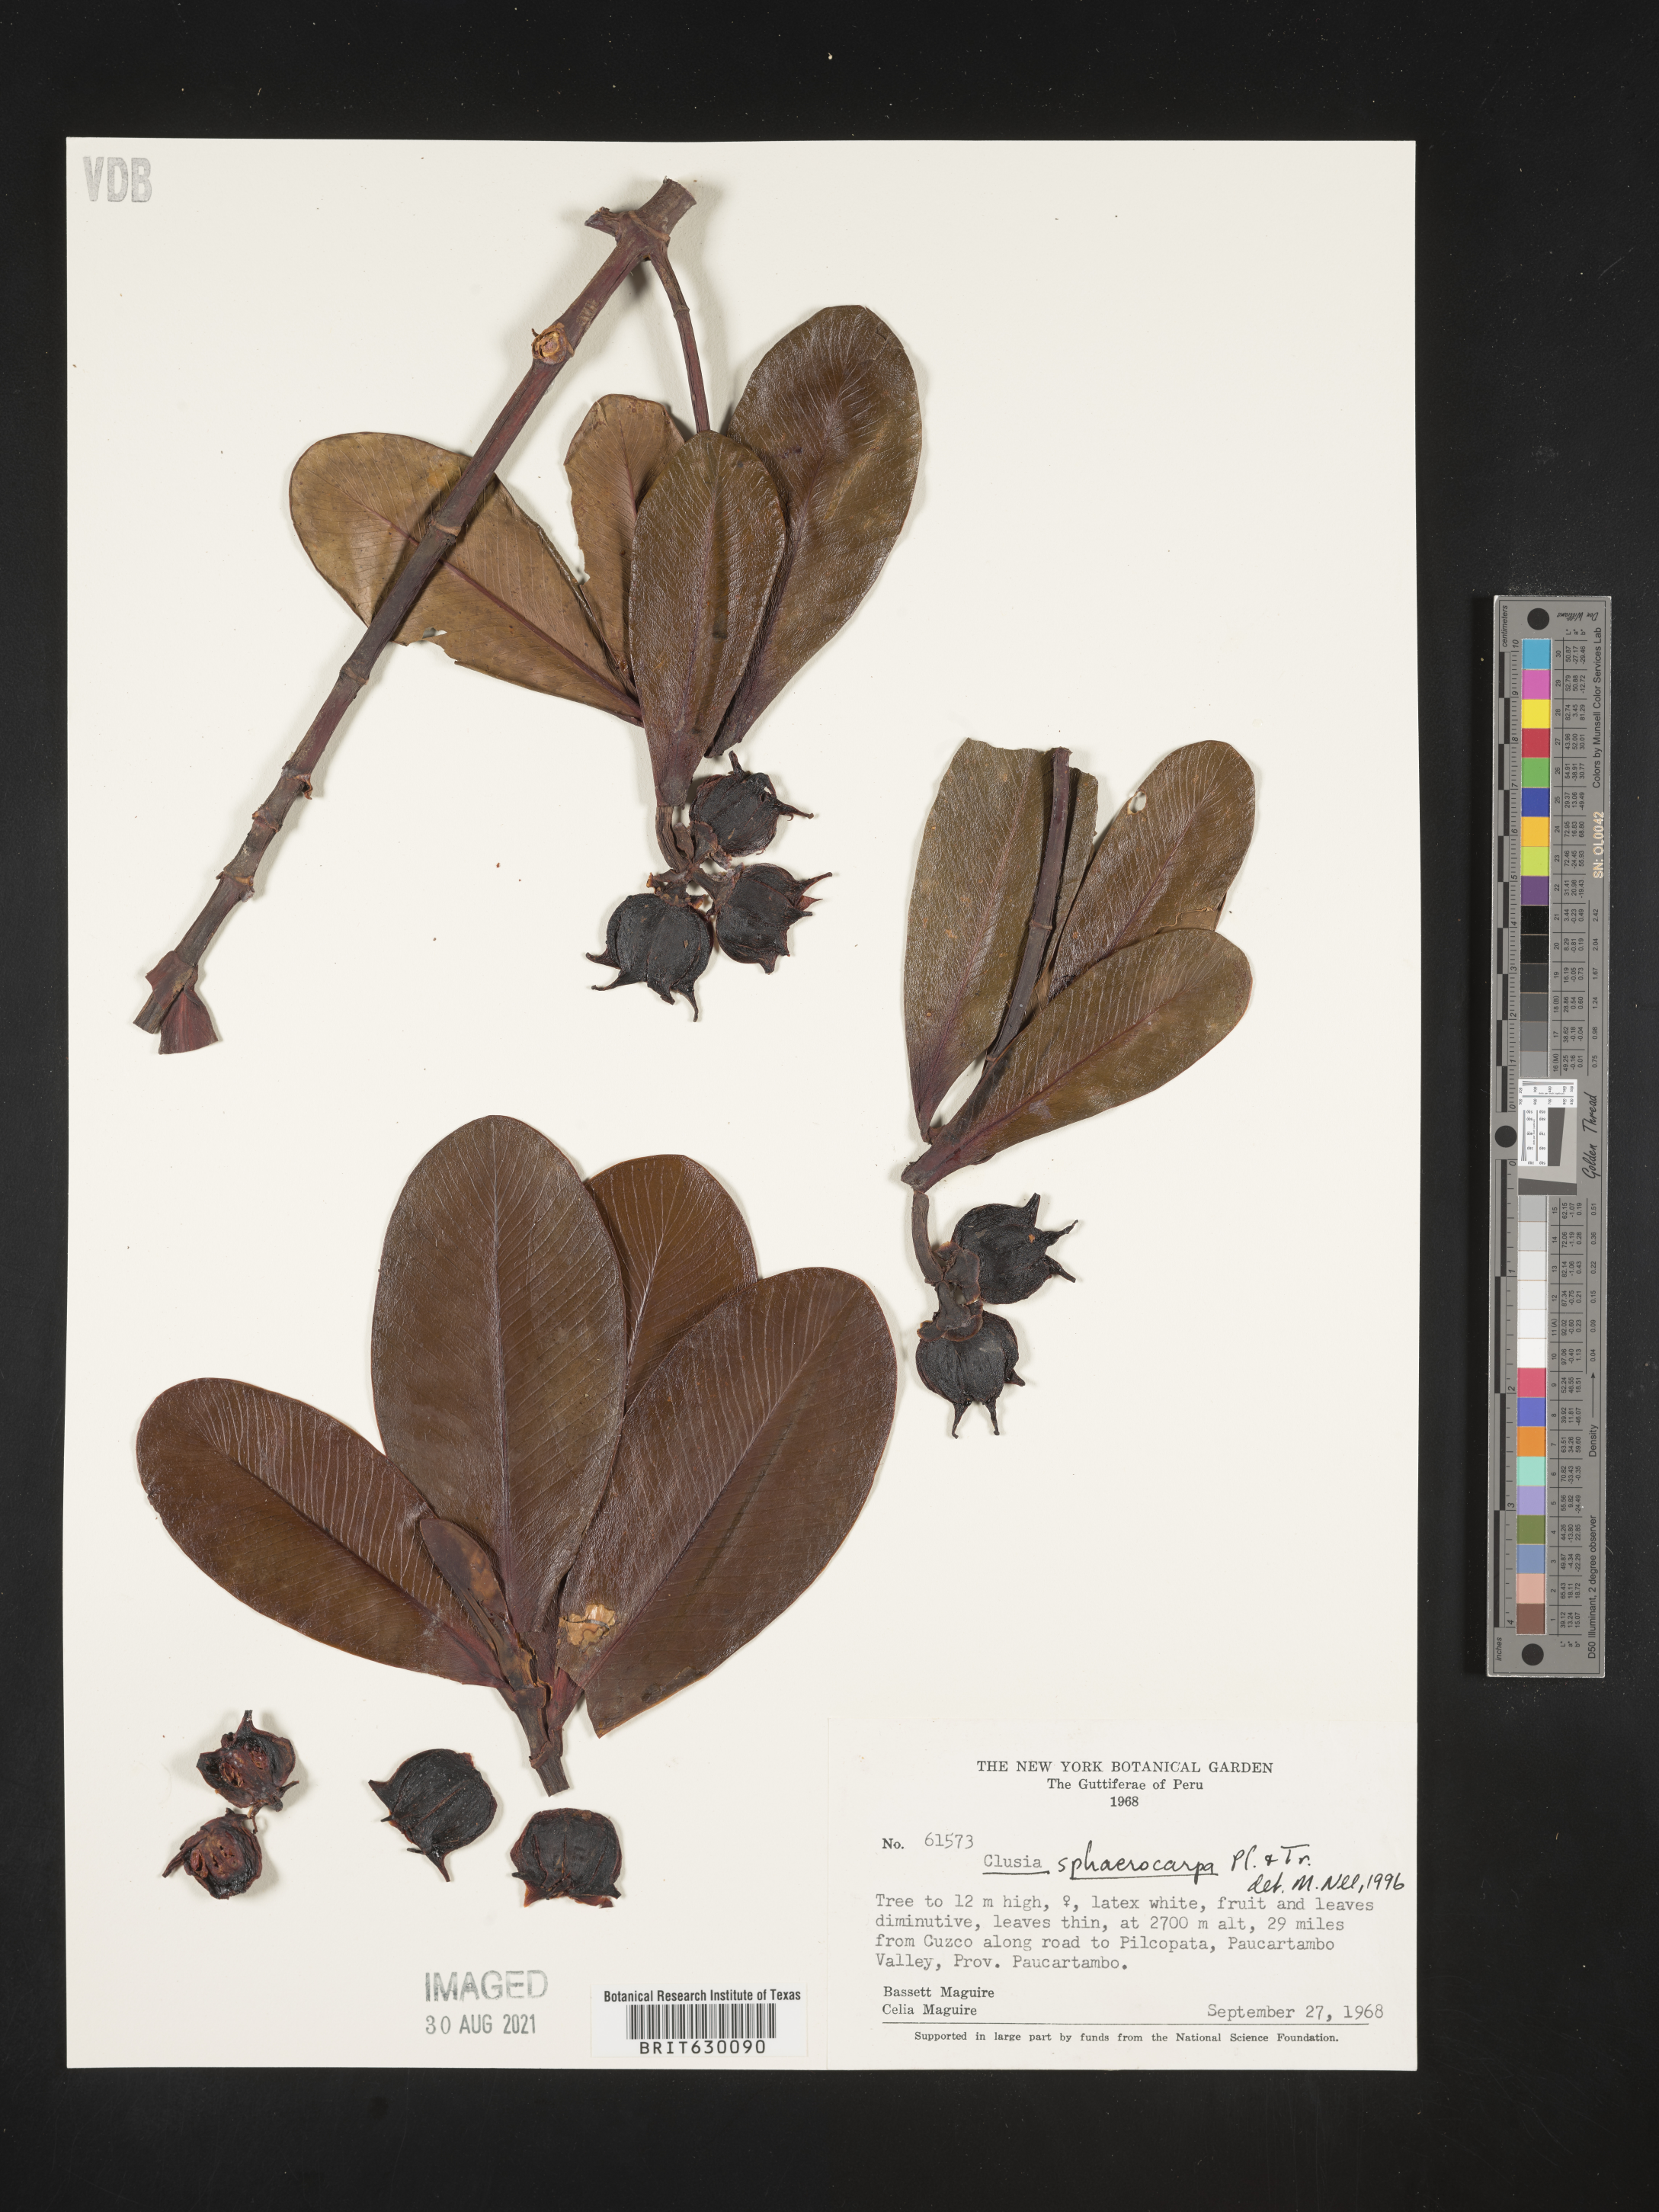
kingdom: Plantae
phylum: Tracheophyta
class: Magnoliopsida
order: Malpighiales
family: Clusiaceae
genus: Clusia
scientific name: Clusia sphaerocarpa
